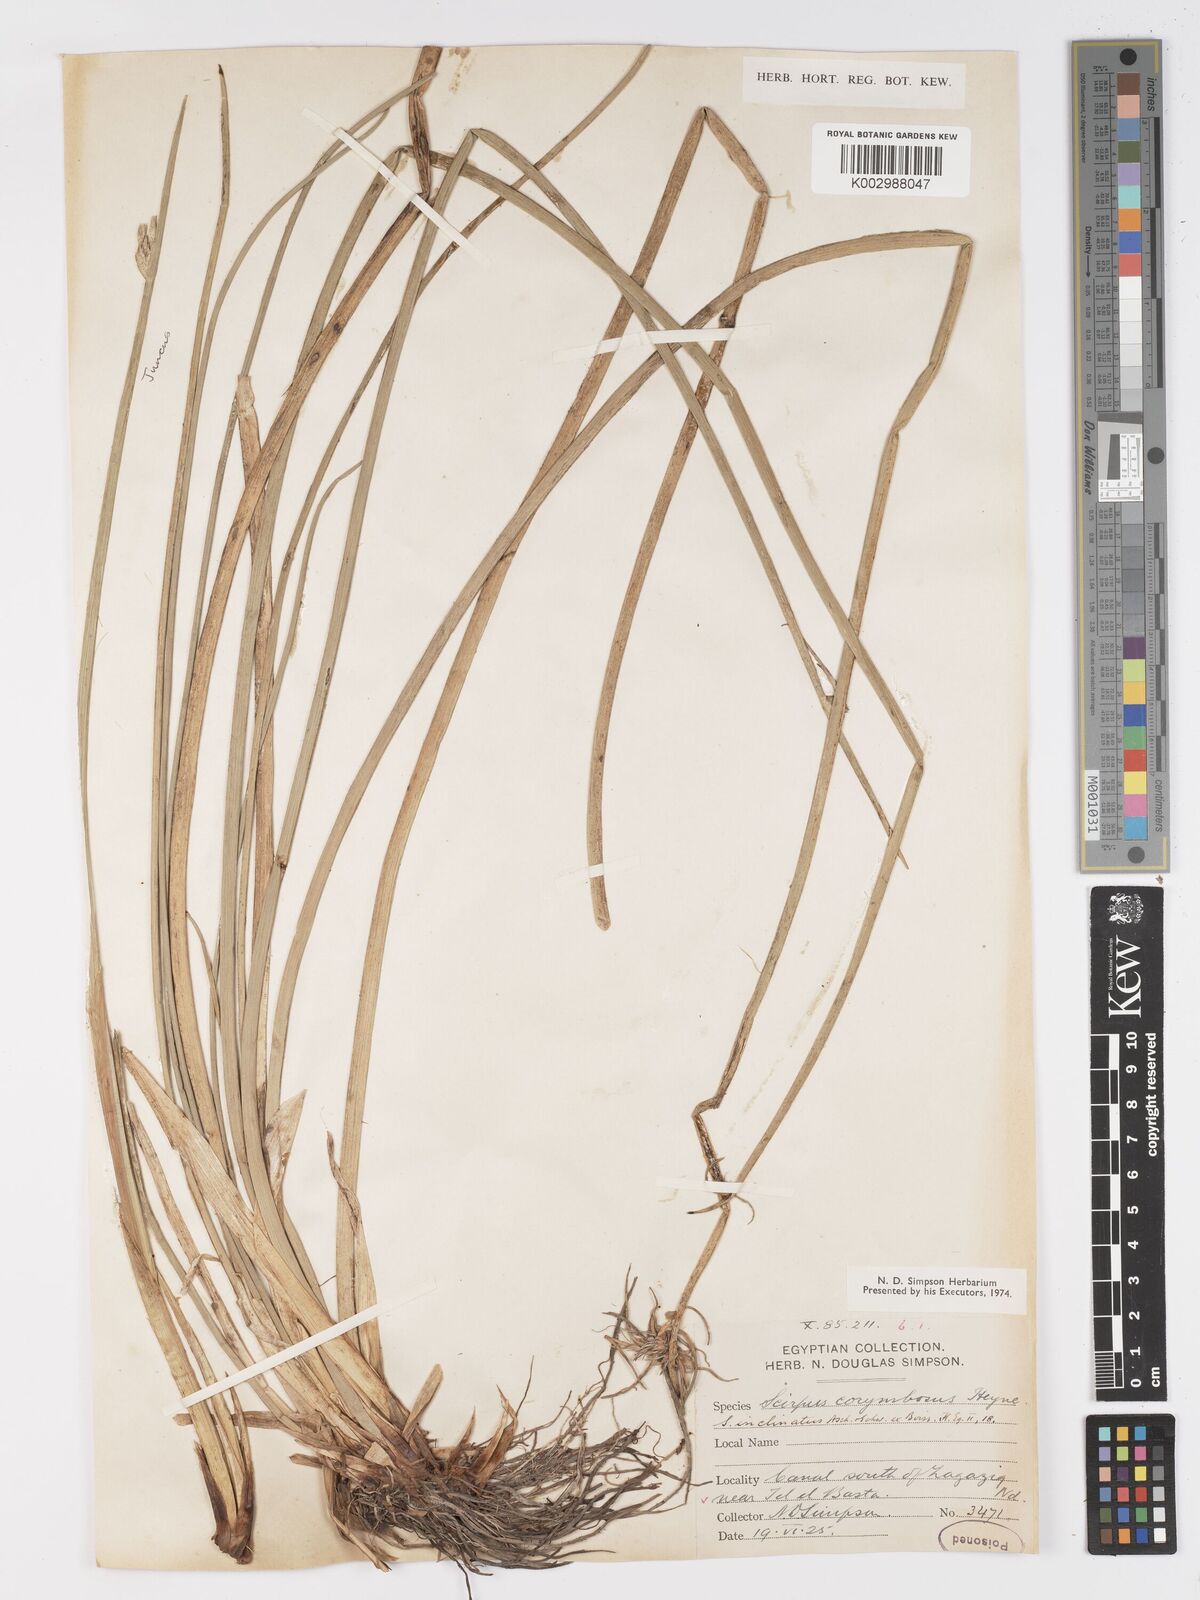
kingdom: Plantae
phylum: Tracheophyta
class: Liliopsida
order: Poales
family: Cyperaceae
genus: Schoenoplectiella
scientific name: Schoenoplectiella corymbosa
